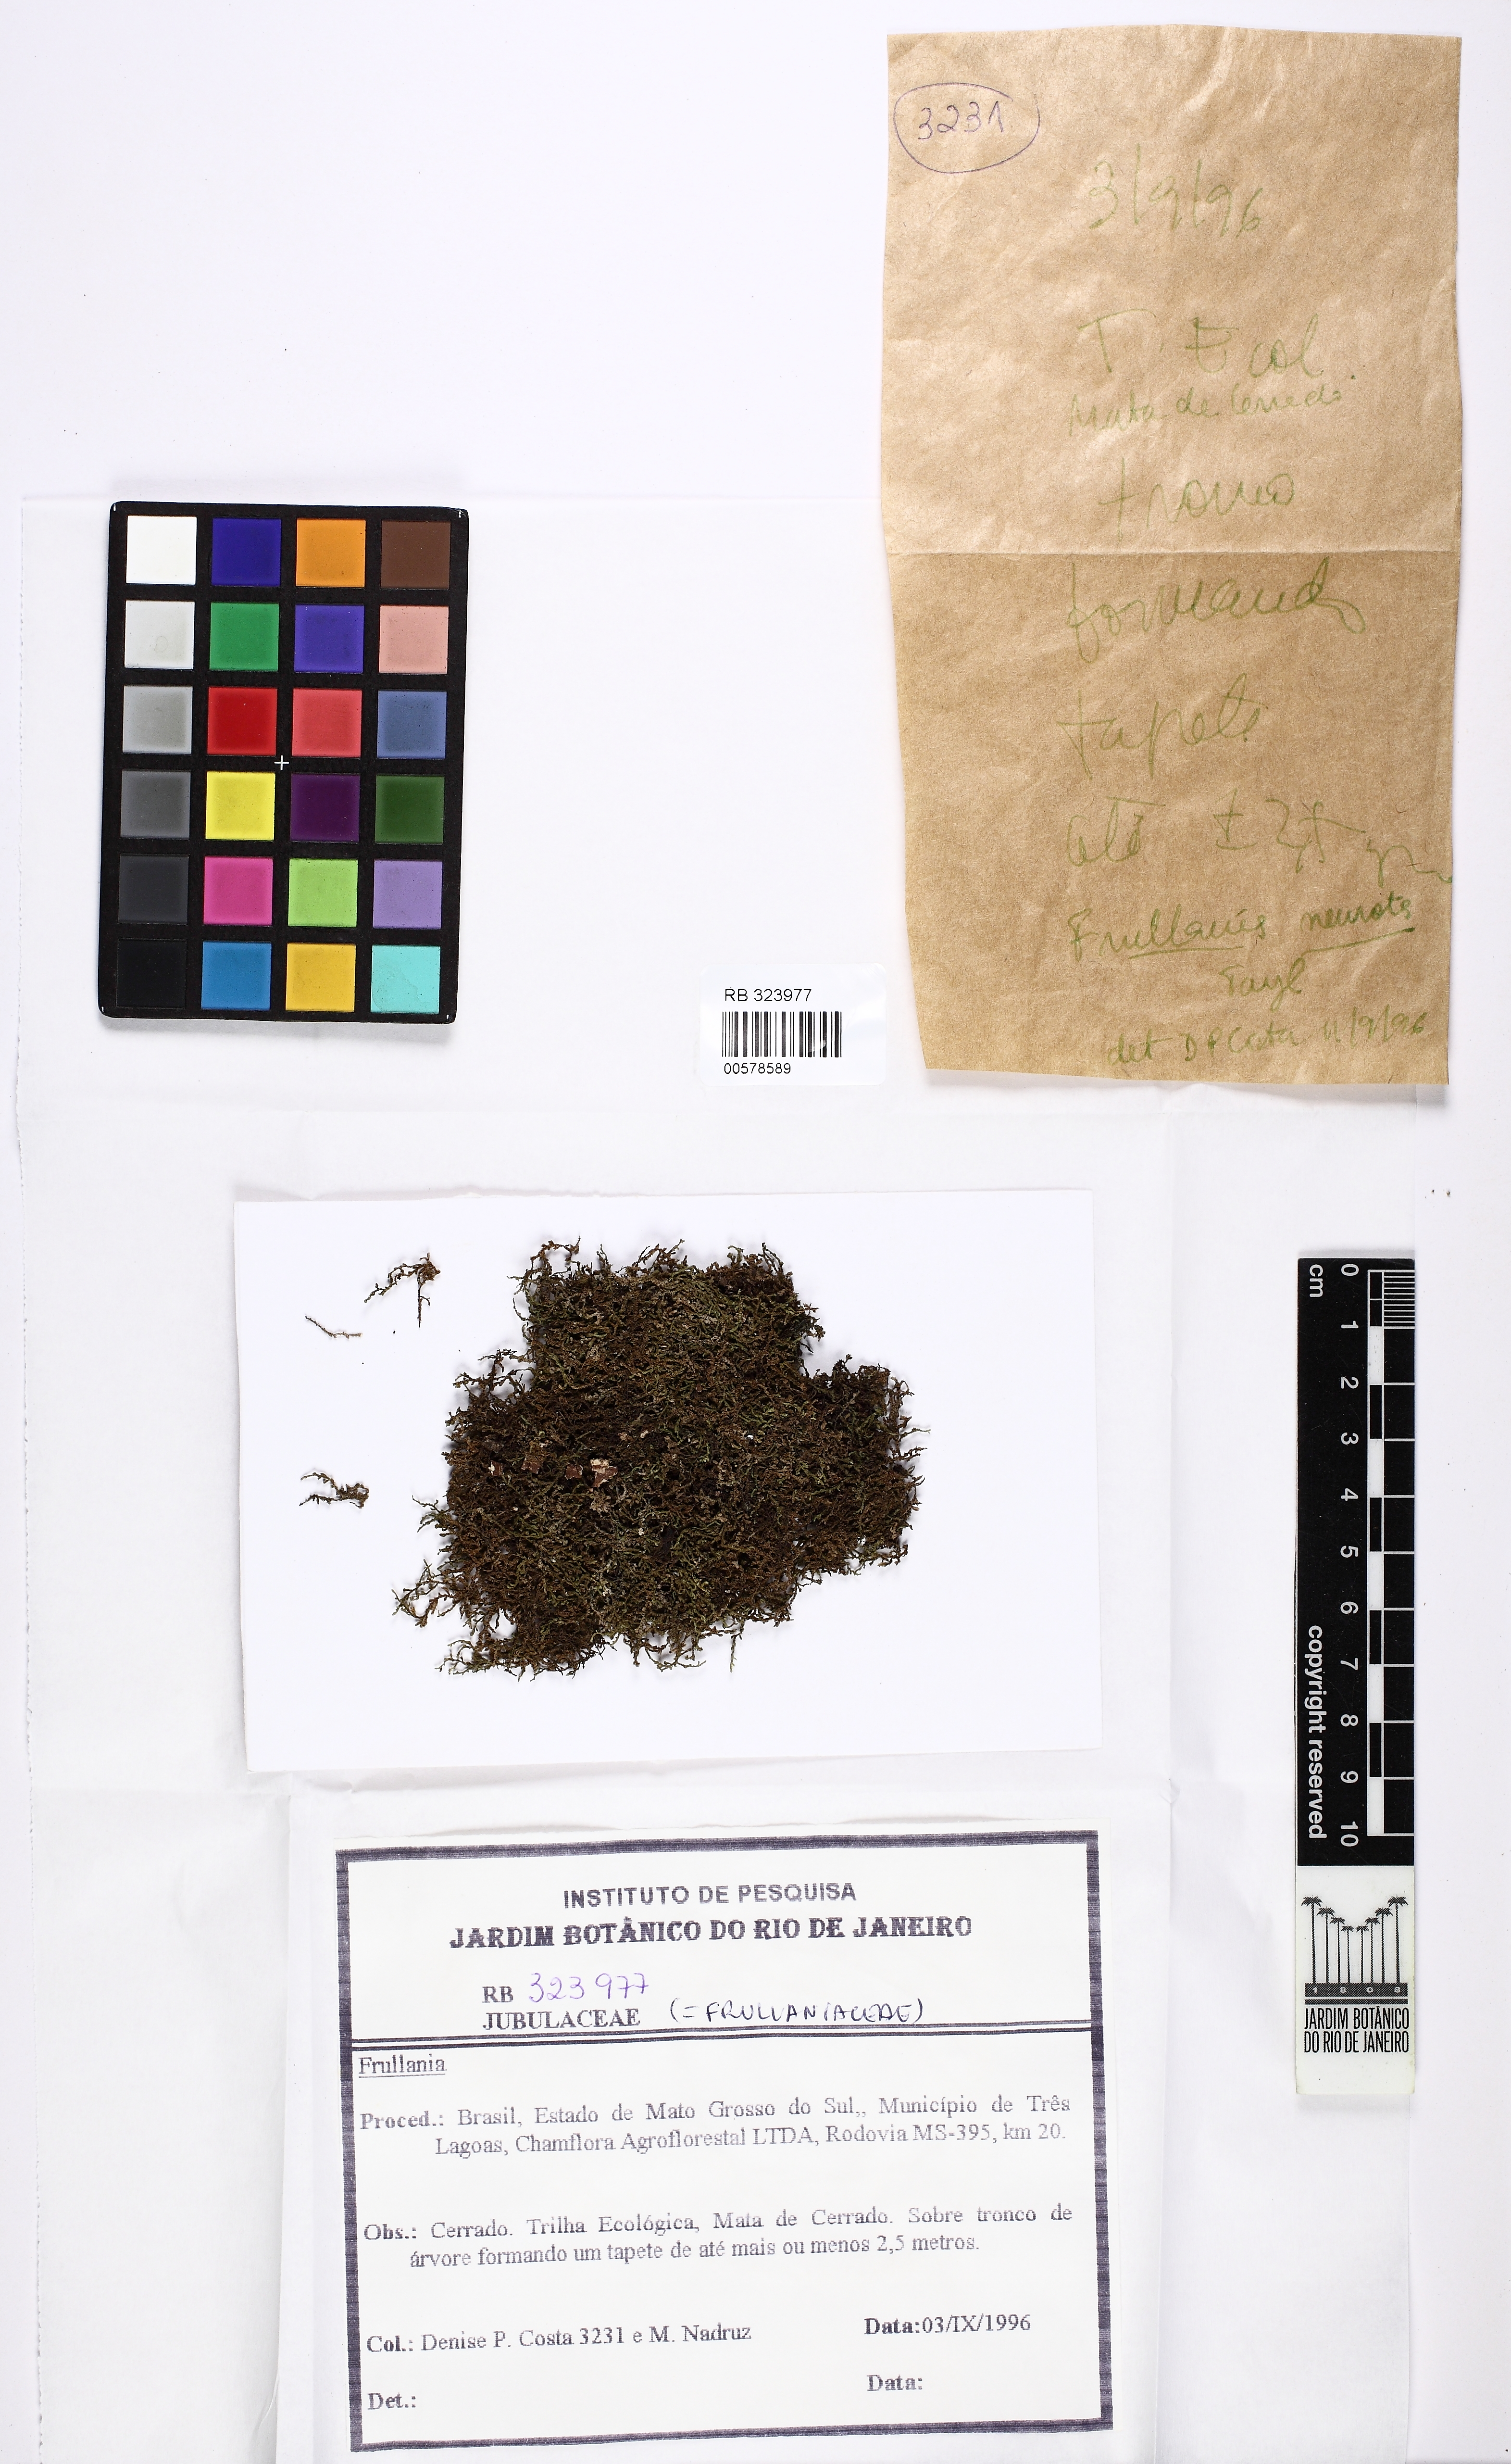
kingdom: Plantae
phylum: Marchantiophyta
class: Jungermanniopsida
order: Porellales
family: Frullaniaceae
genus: Frullania
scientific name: Frullania
